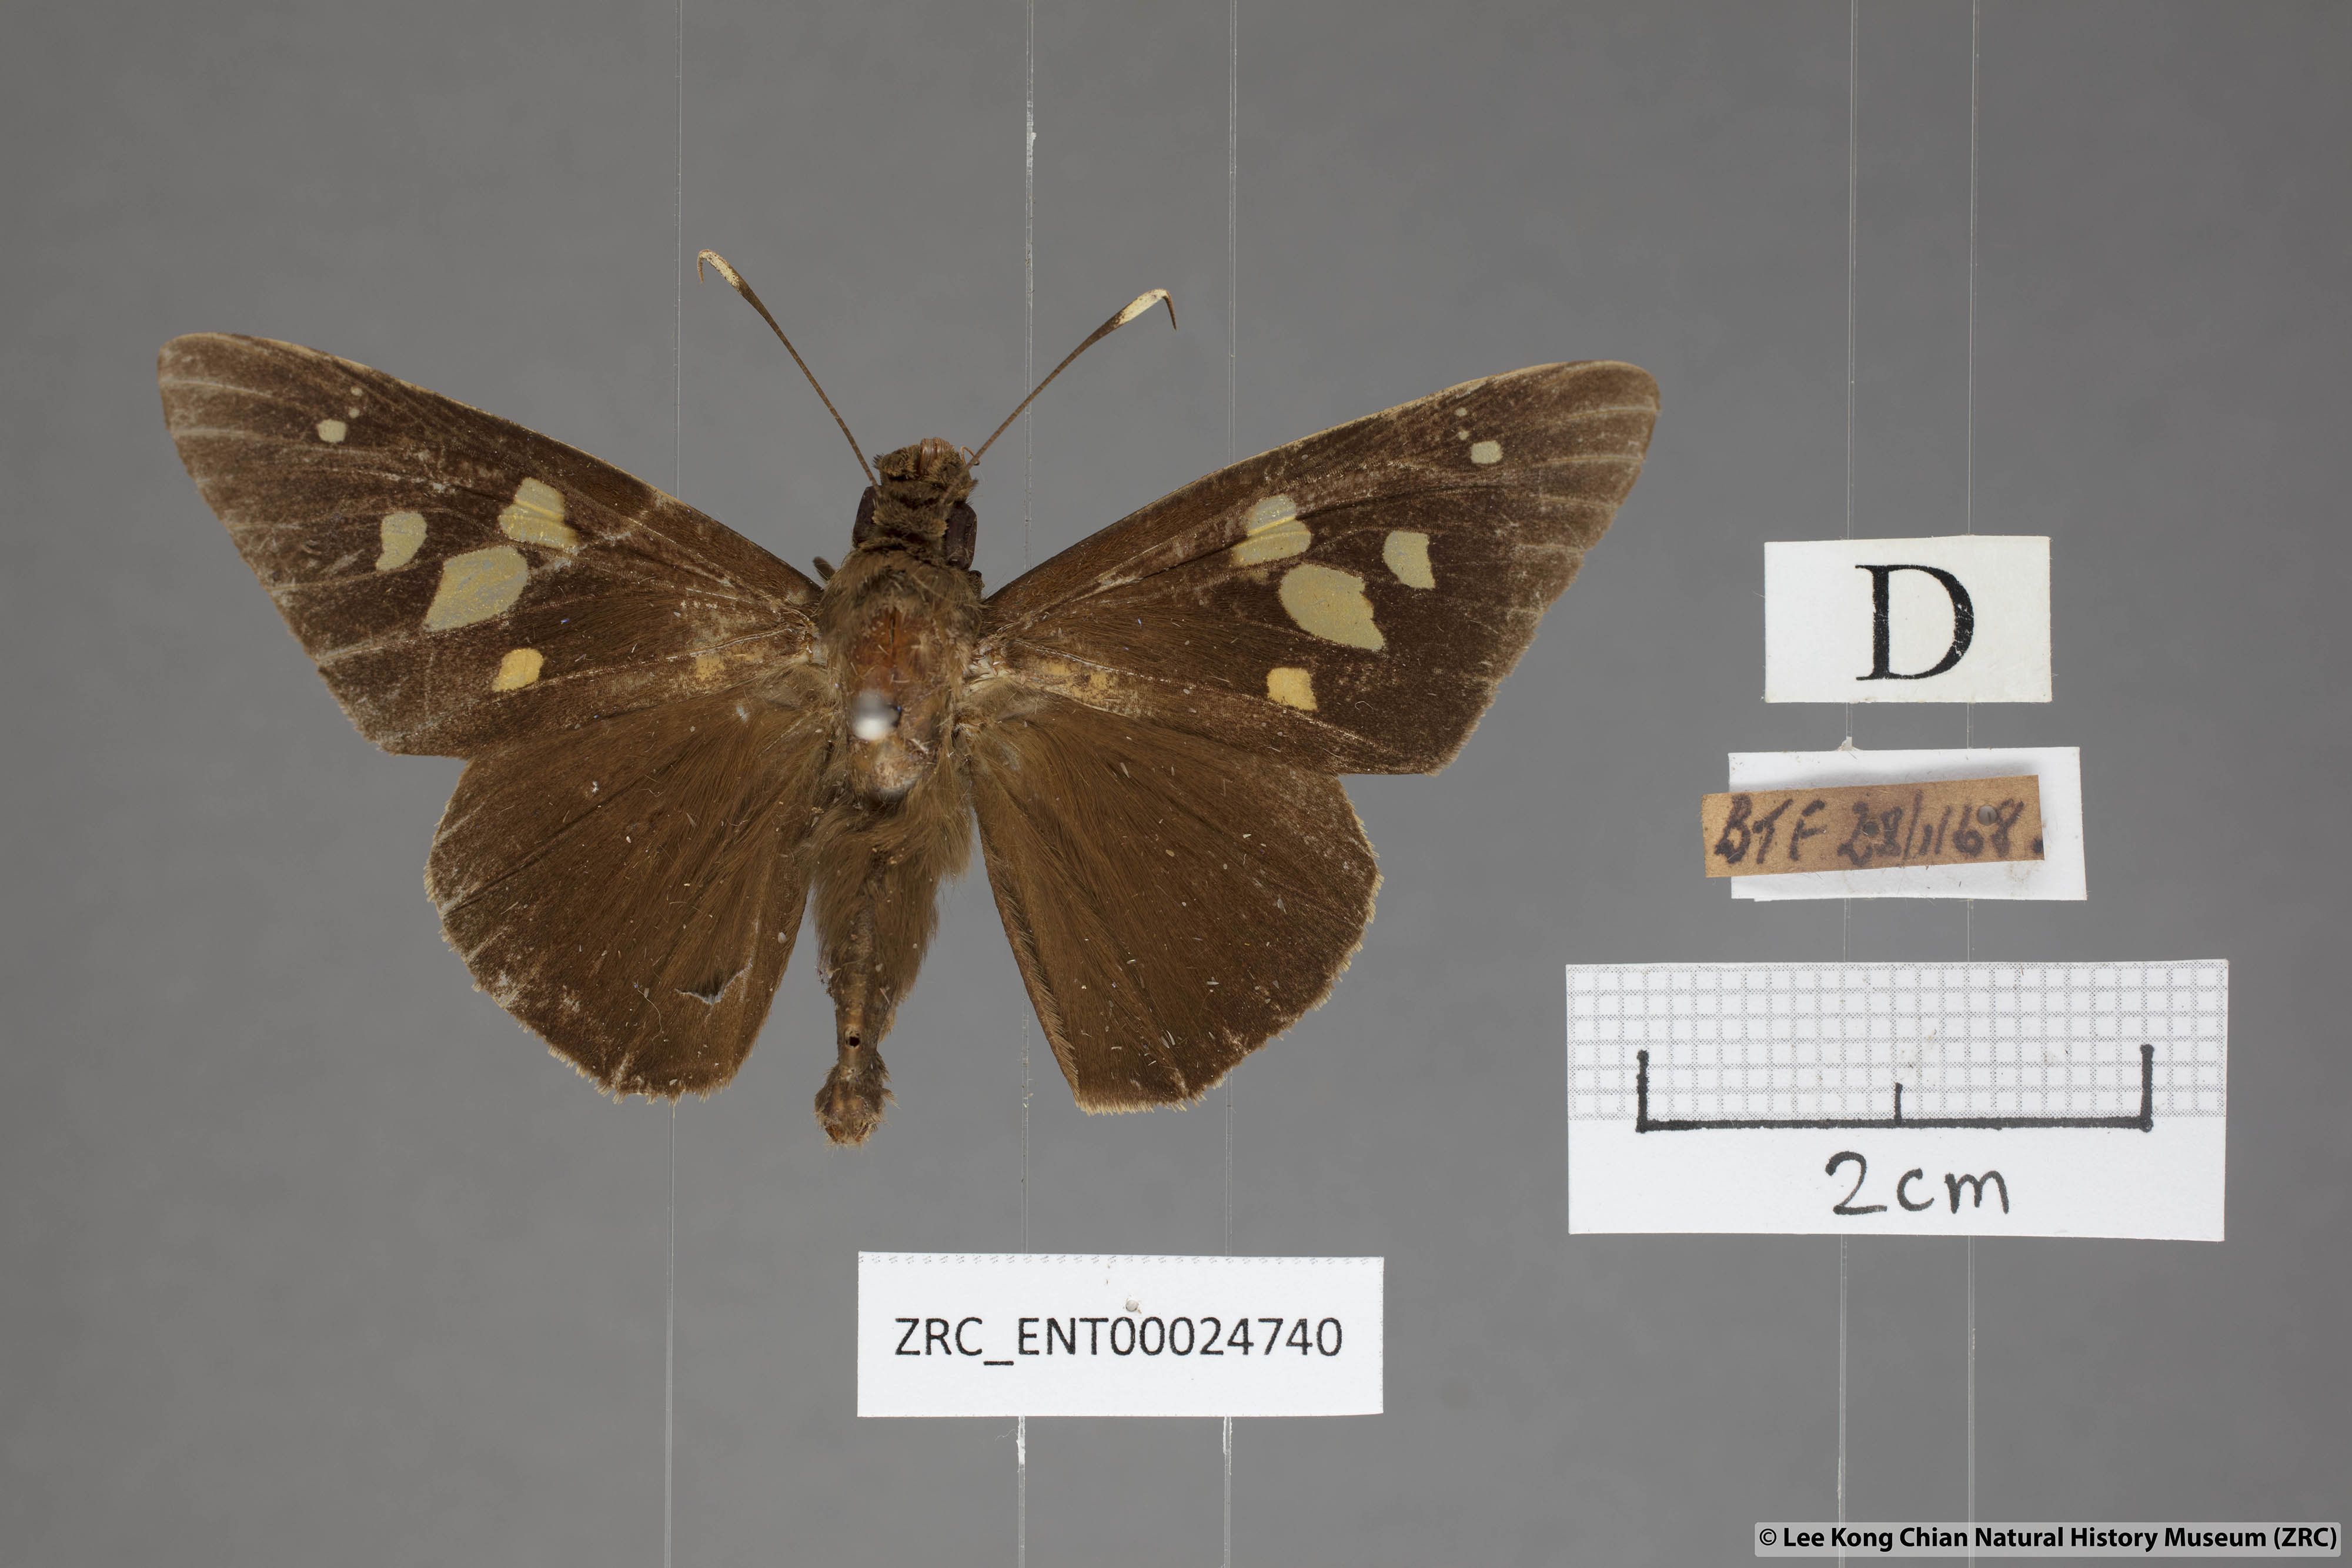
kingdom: Animalia
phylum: Arthropoda
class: Insecta
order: Lepidoptera
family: Hesperiidae
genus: Hidari
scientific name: Hidari doesoena
